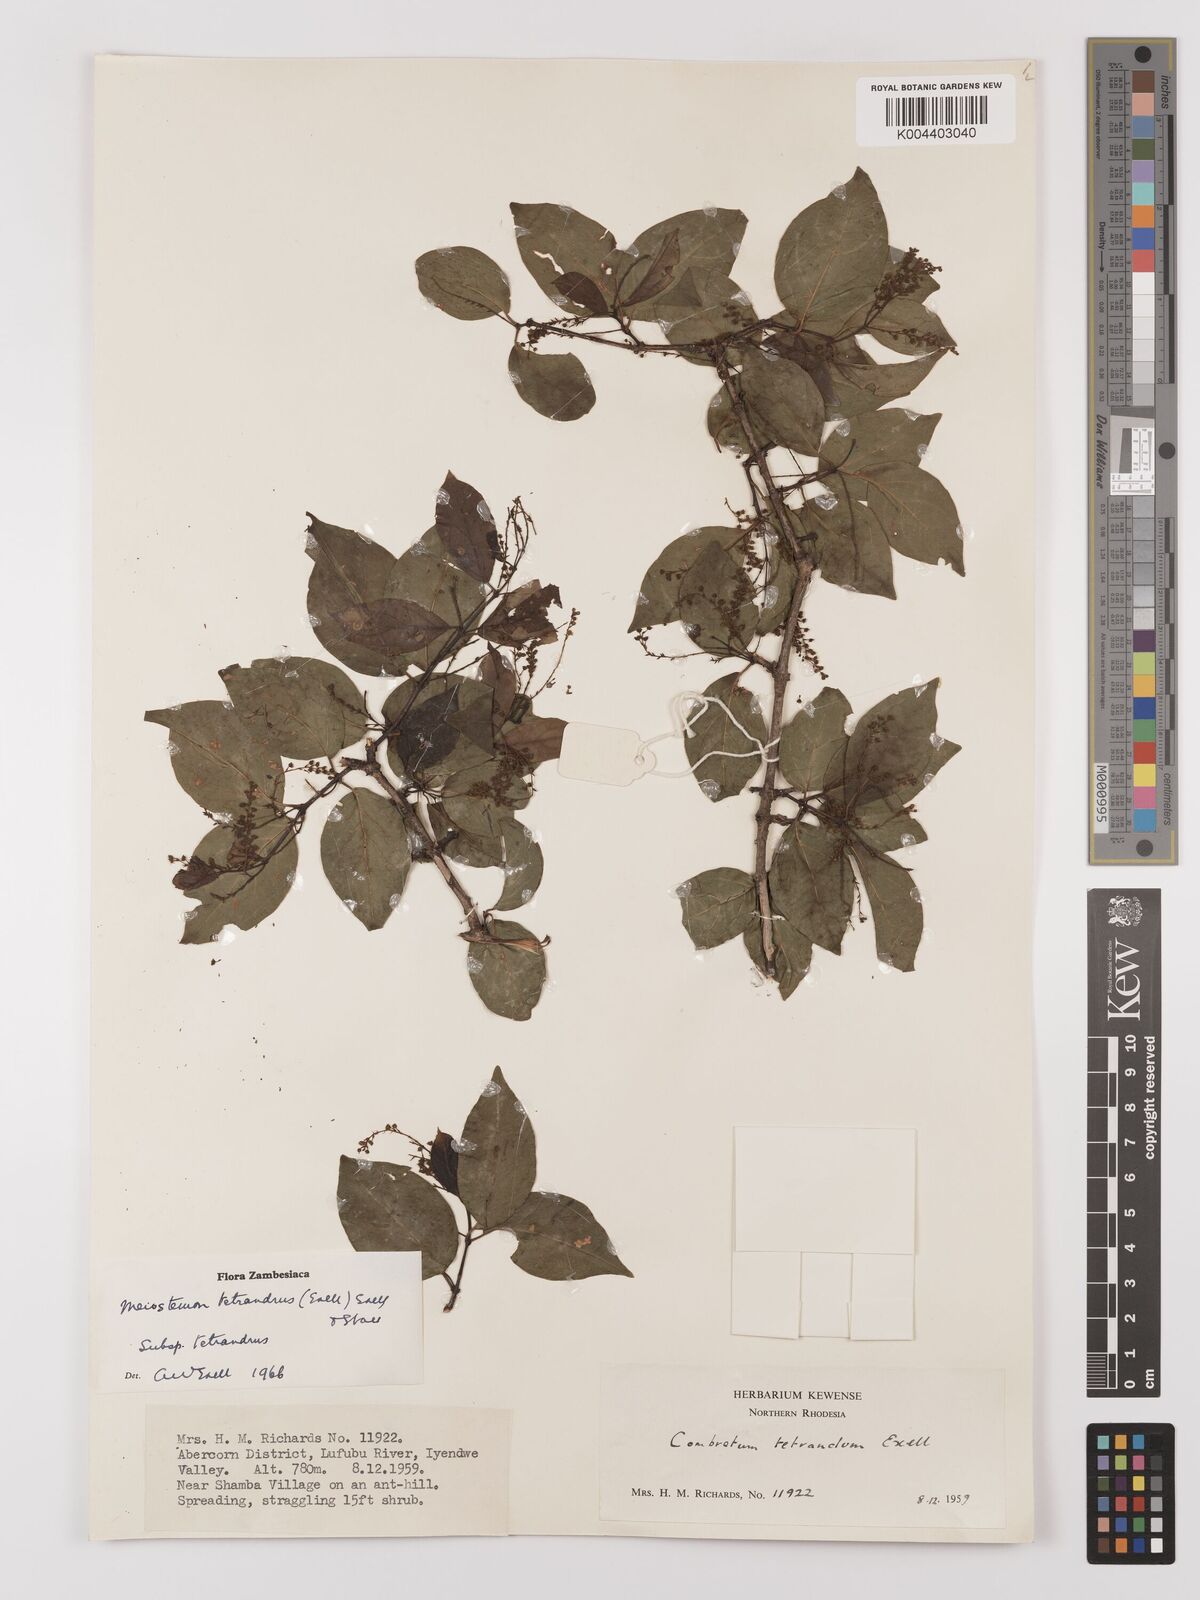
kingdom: Plantae
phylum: Tracheophyta
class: Magnoliopsida
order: Myrtales
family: Combretaceae
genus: Combretum
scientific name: Combretum tetrandrum
